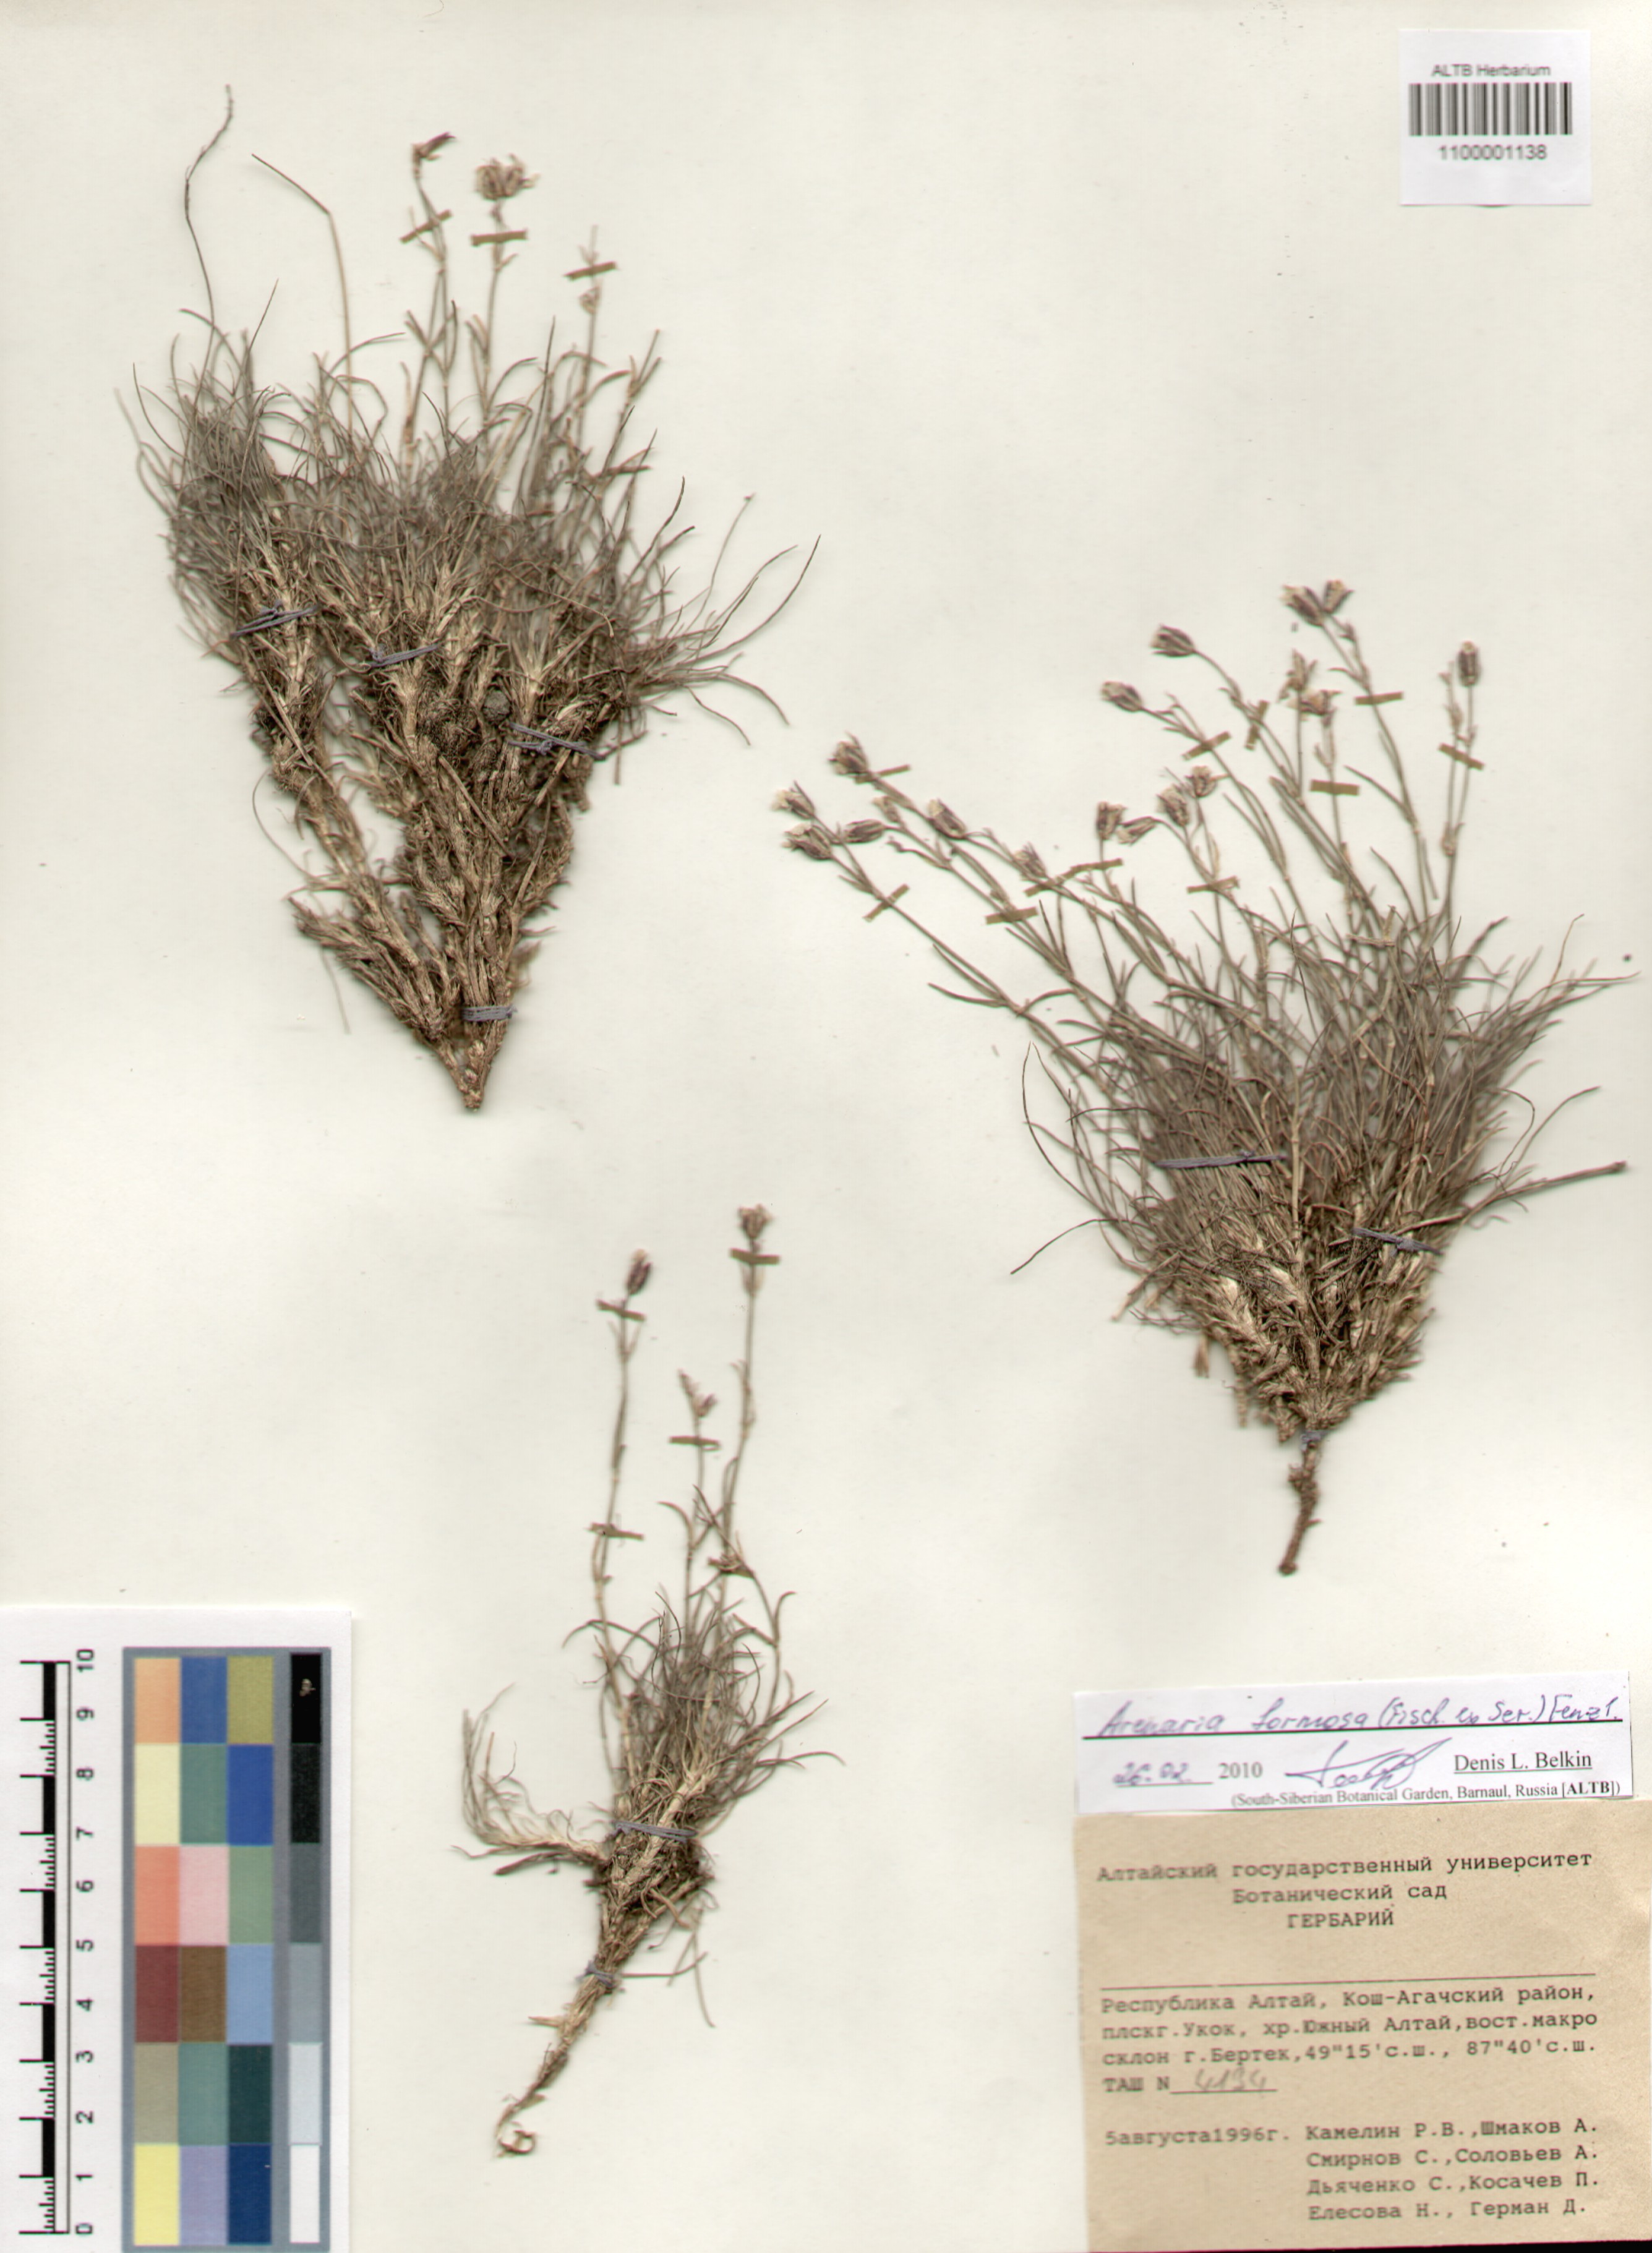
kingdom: Plantae
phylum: Tracheophyta
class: Magnoliopsida
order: Caryophyllales
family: Caryophyllaceae
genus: Eremogone
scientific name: Eremogone formosa
